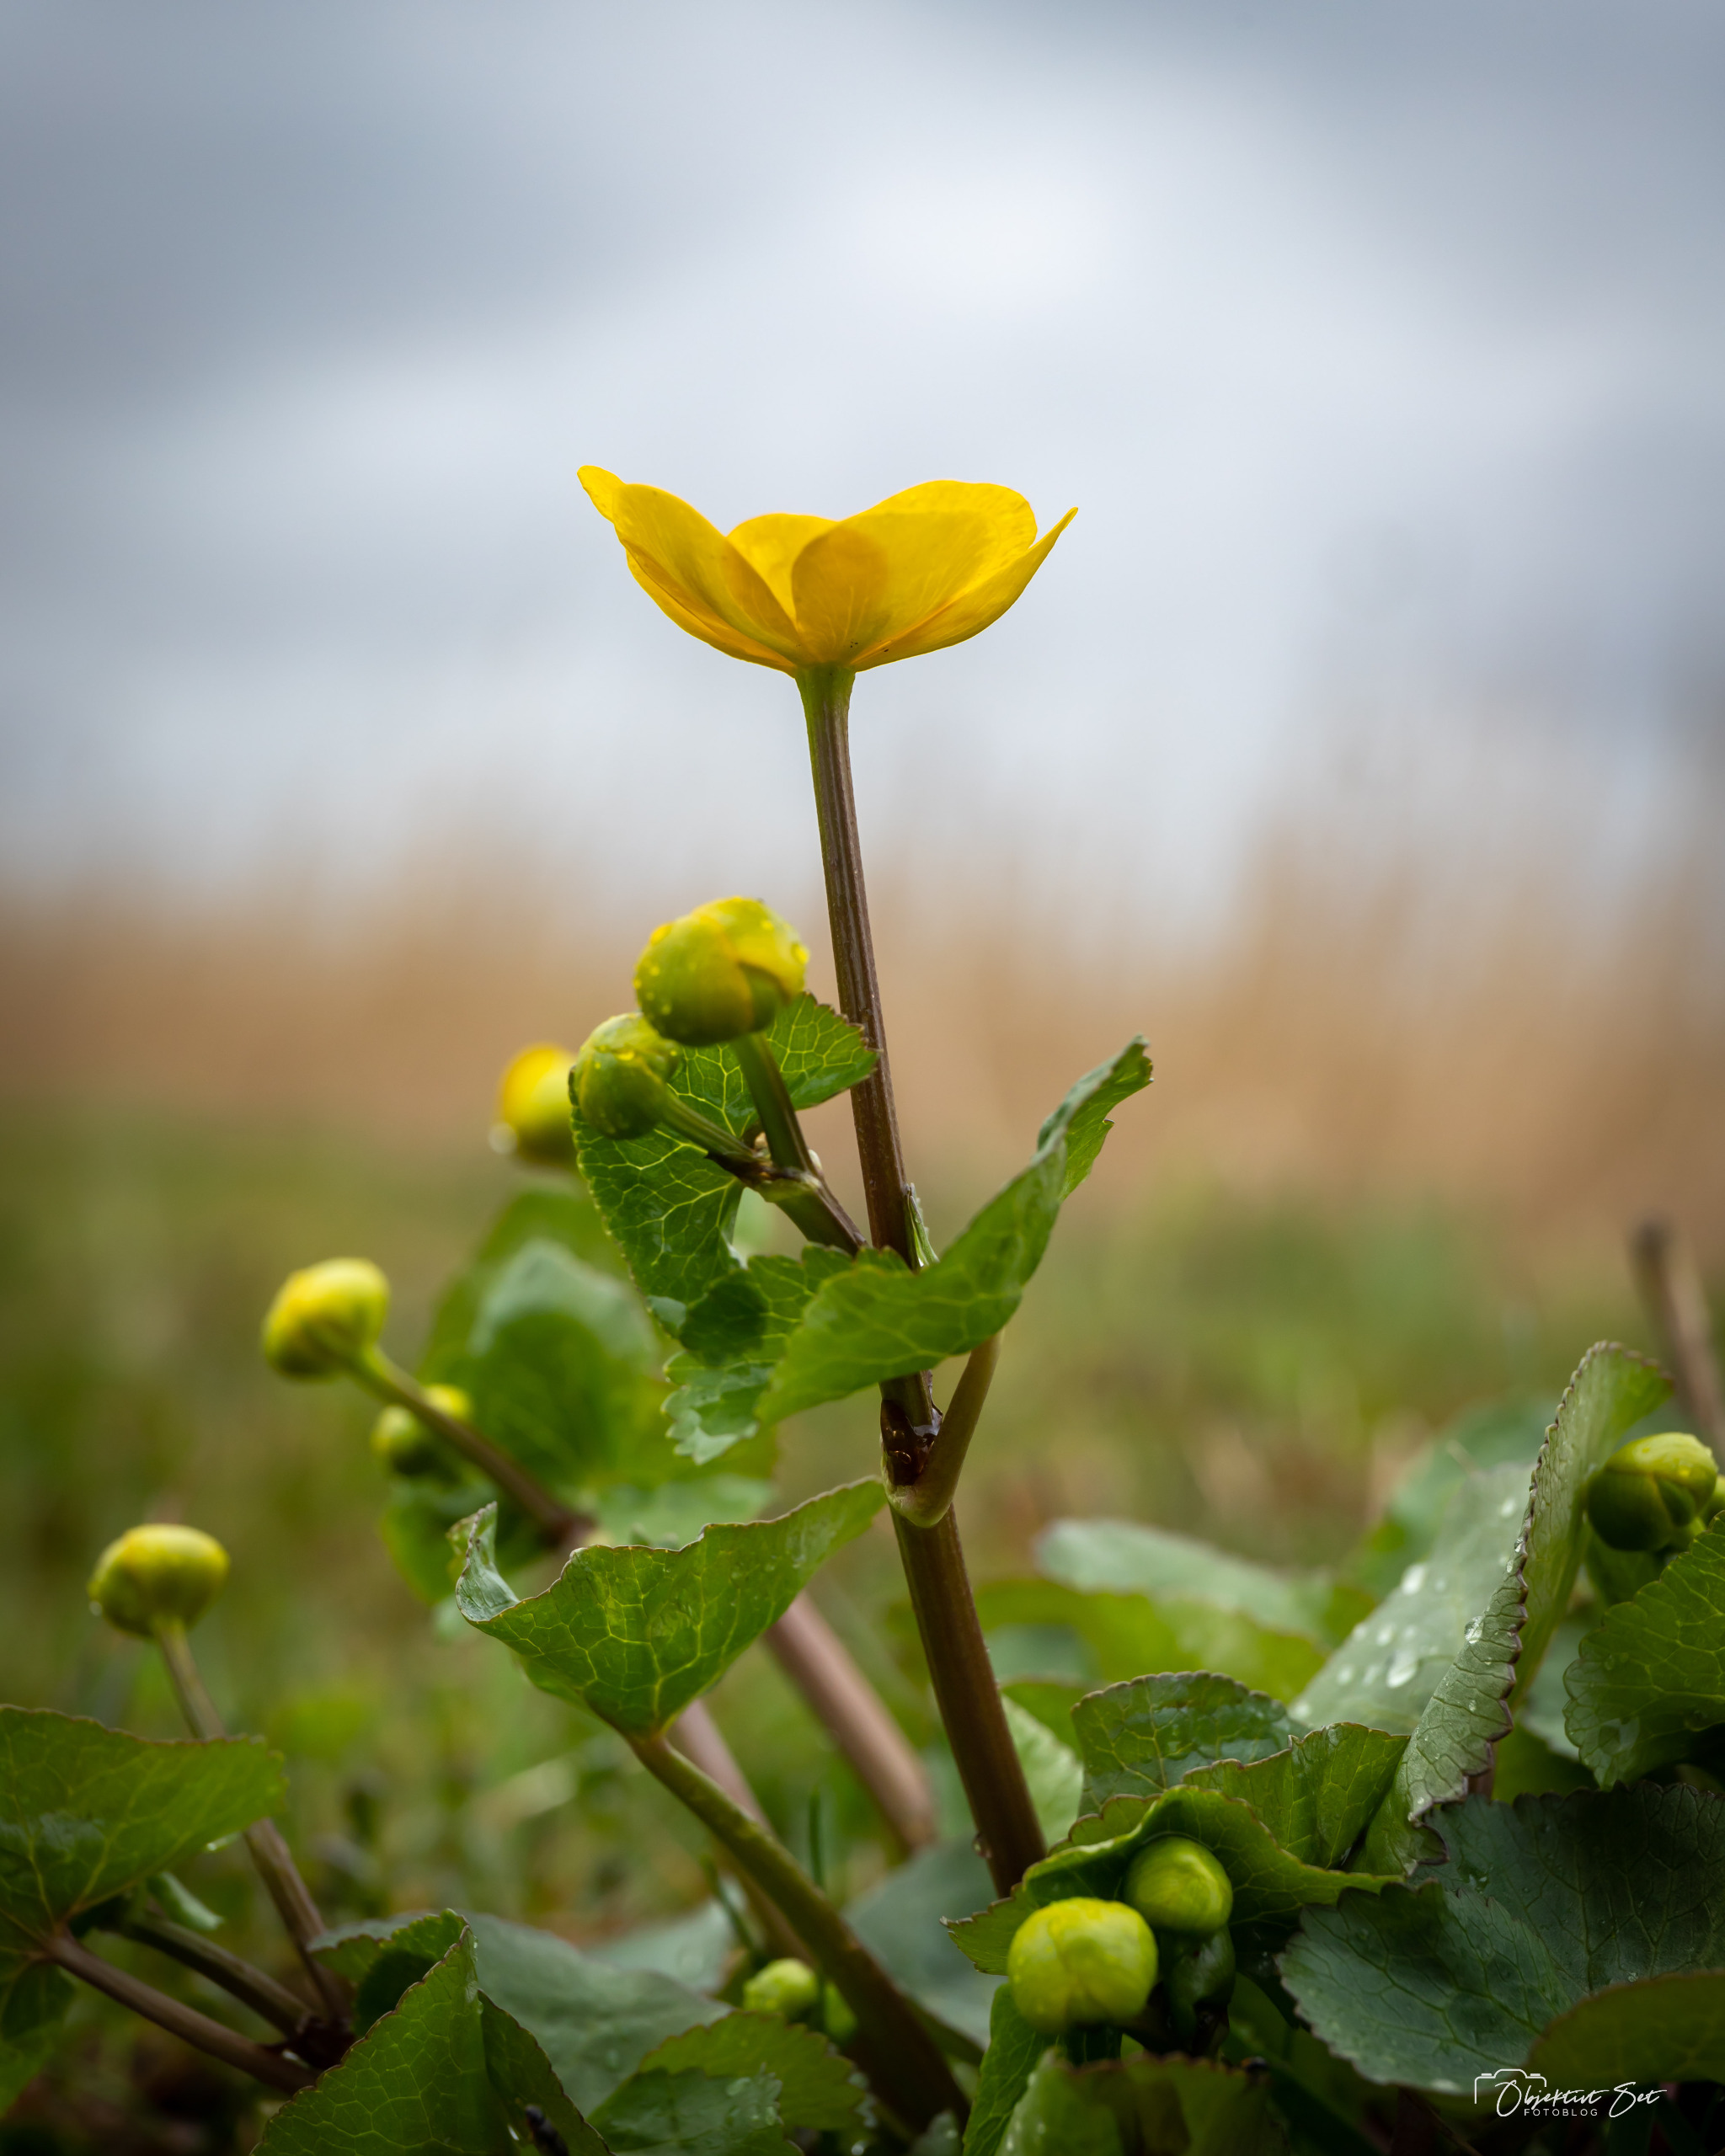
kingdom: Plantae
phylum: Tracheophyta
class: Magnoliopsida
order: Ranunculales
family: Ranunculaceae
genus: Caltha
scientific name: Caltha palustris
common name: Eng-kabbeleje
